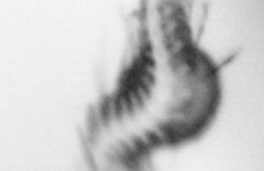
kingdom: Animalia
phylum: Annelida
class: Polychaeta
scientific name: Polychaeta
